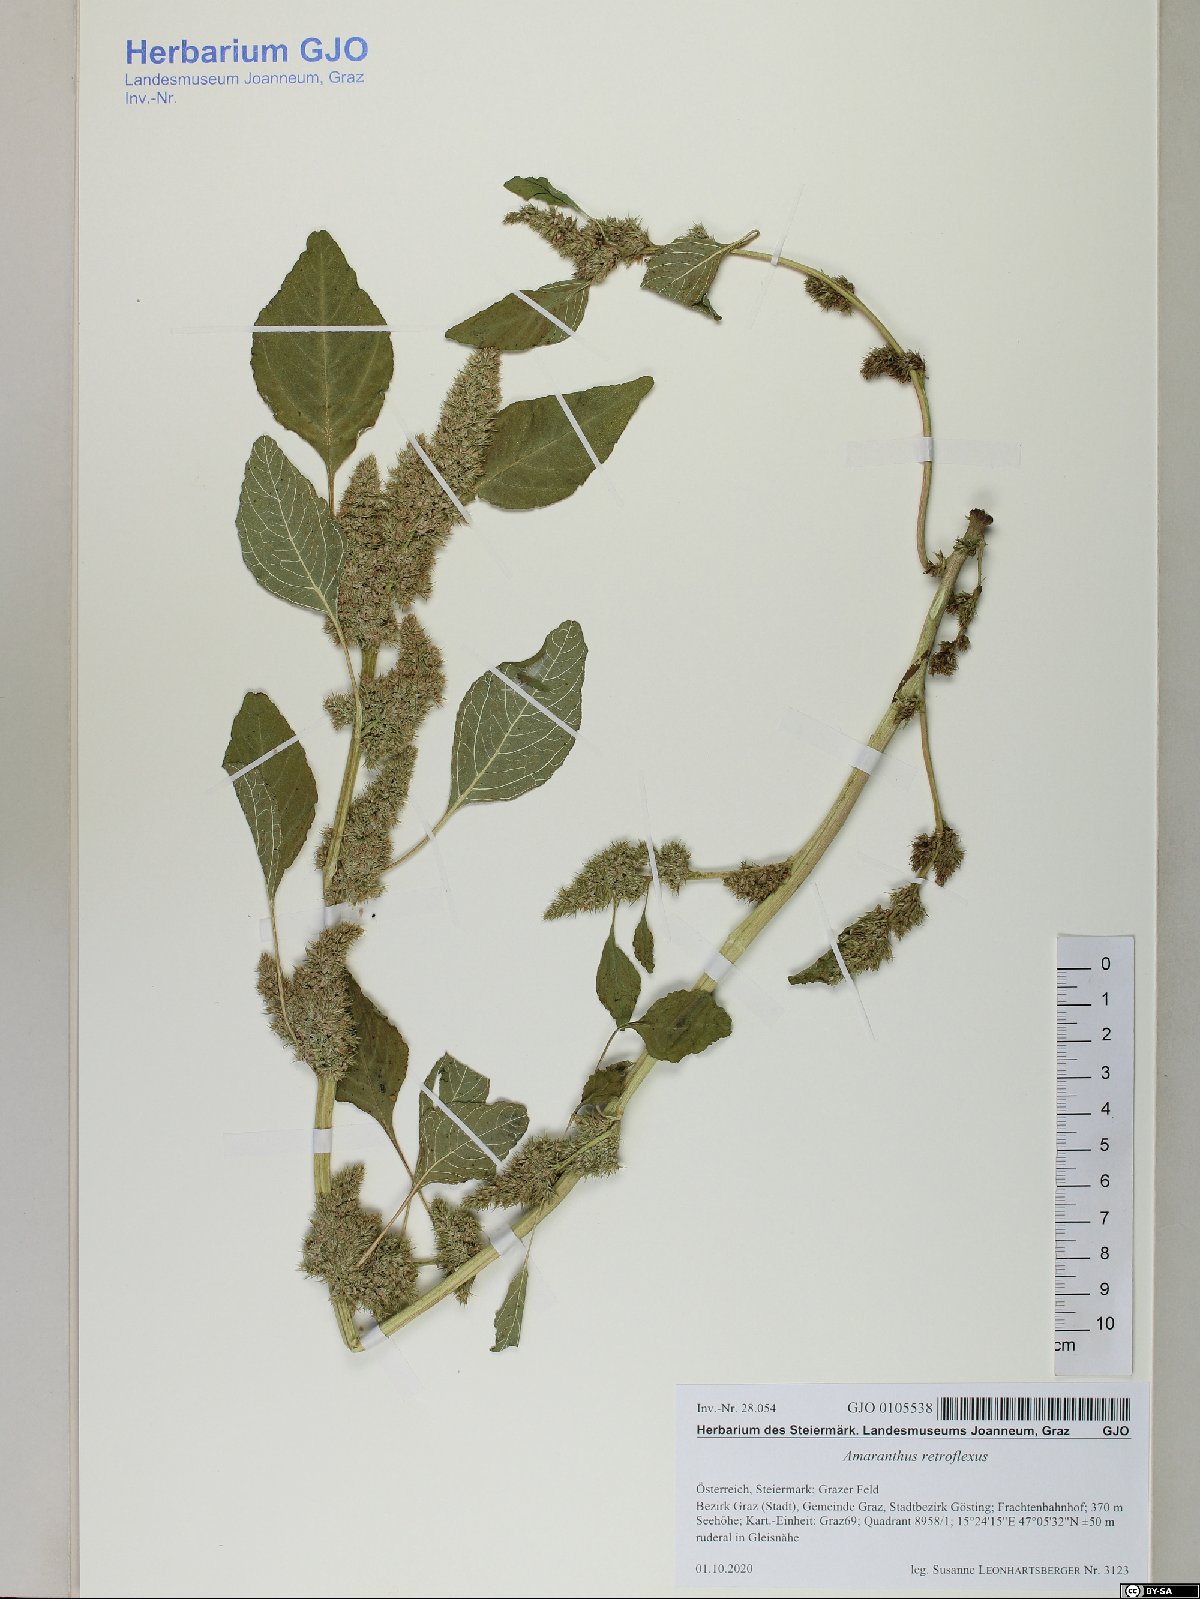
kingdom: Plantae
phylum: Tracheophyta
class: Magnoliopsida
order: Caryophyllales
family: Amaranthaceae
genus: Amaranthus
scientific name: Amaranthus retroflexus
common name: Redroot amaranth
